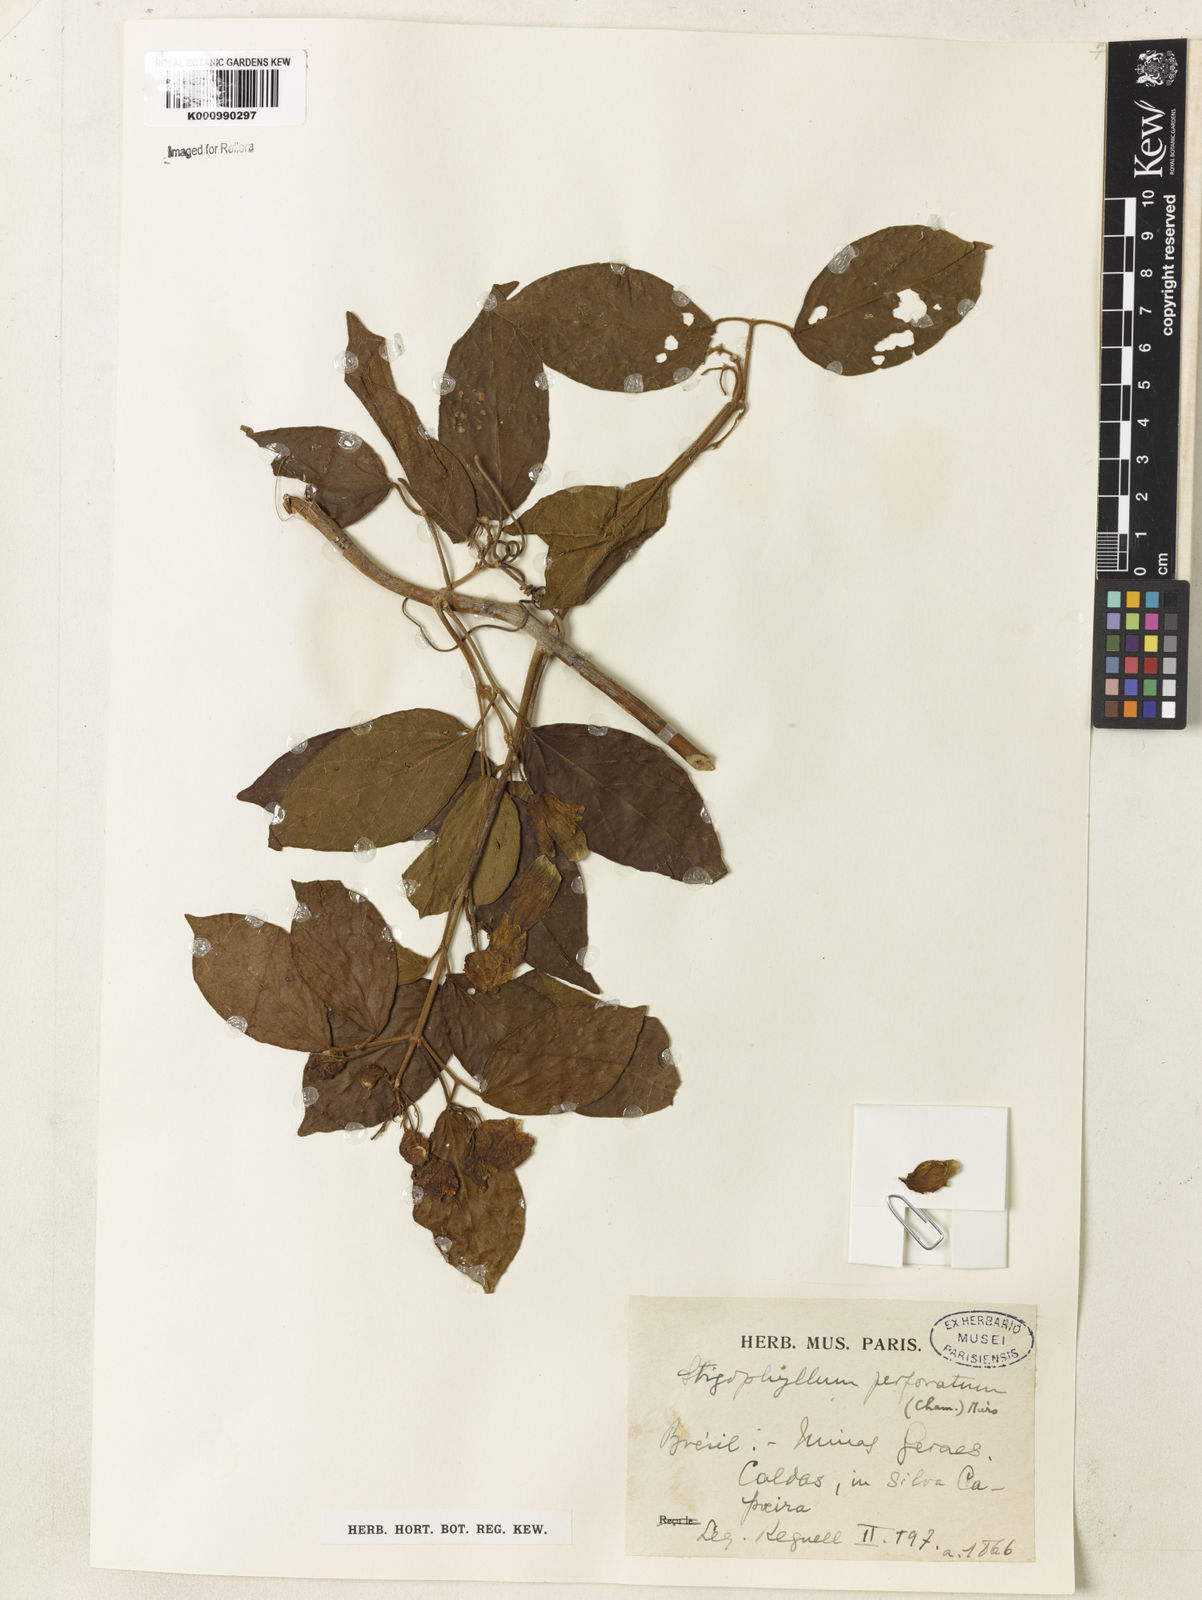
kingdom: Plantae
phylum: Tracheophyta
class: Magnoliopsida
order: Lamiales
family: Bignoniaceae
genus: Stizophyllum
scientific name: Stizophyllum perforatum
